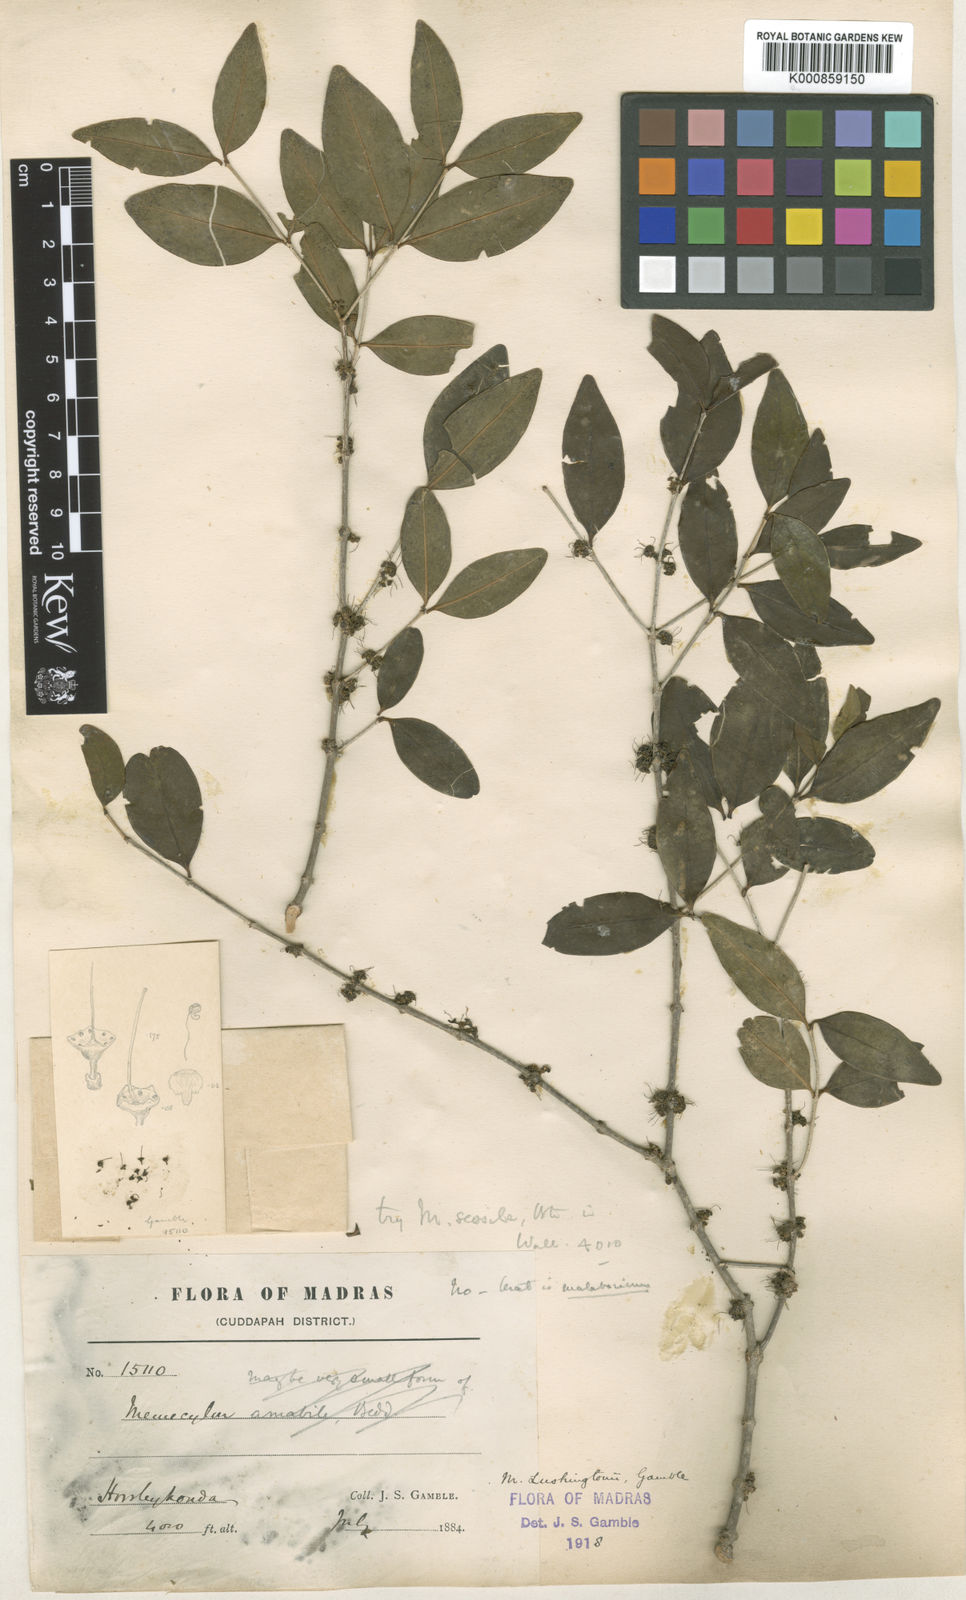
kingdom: Plantae
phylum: Tracheophyta
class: Magnoliopsida
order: Myrtales
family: Melastomataceae
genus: Memecylon
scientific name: Memecylon lushingtonii
